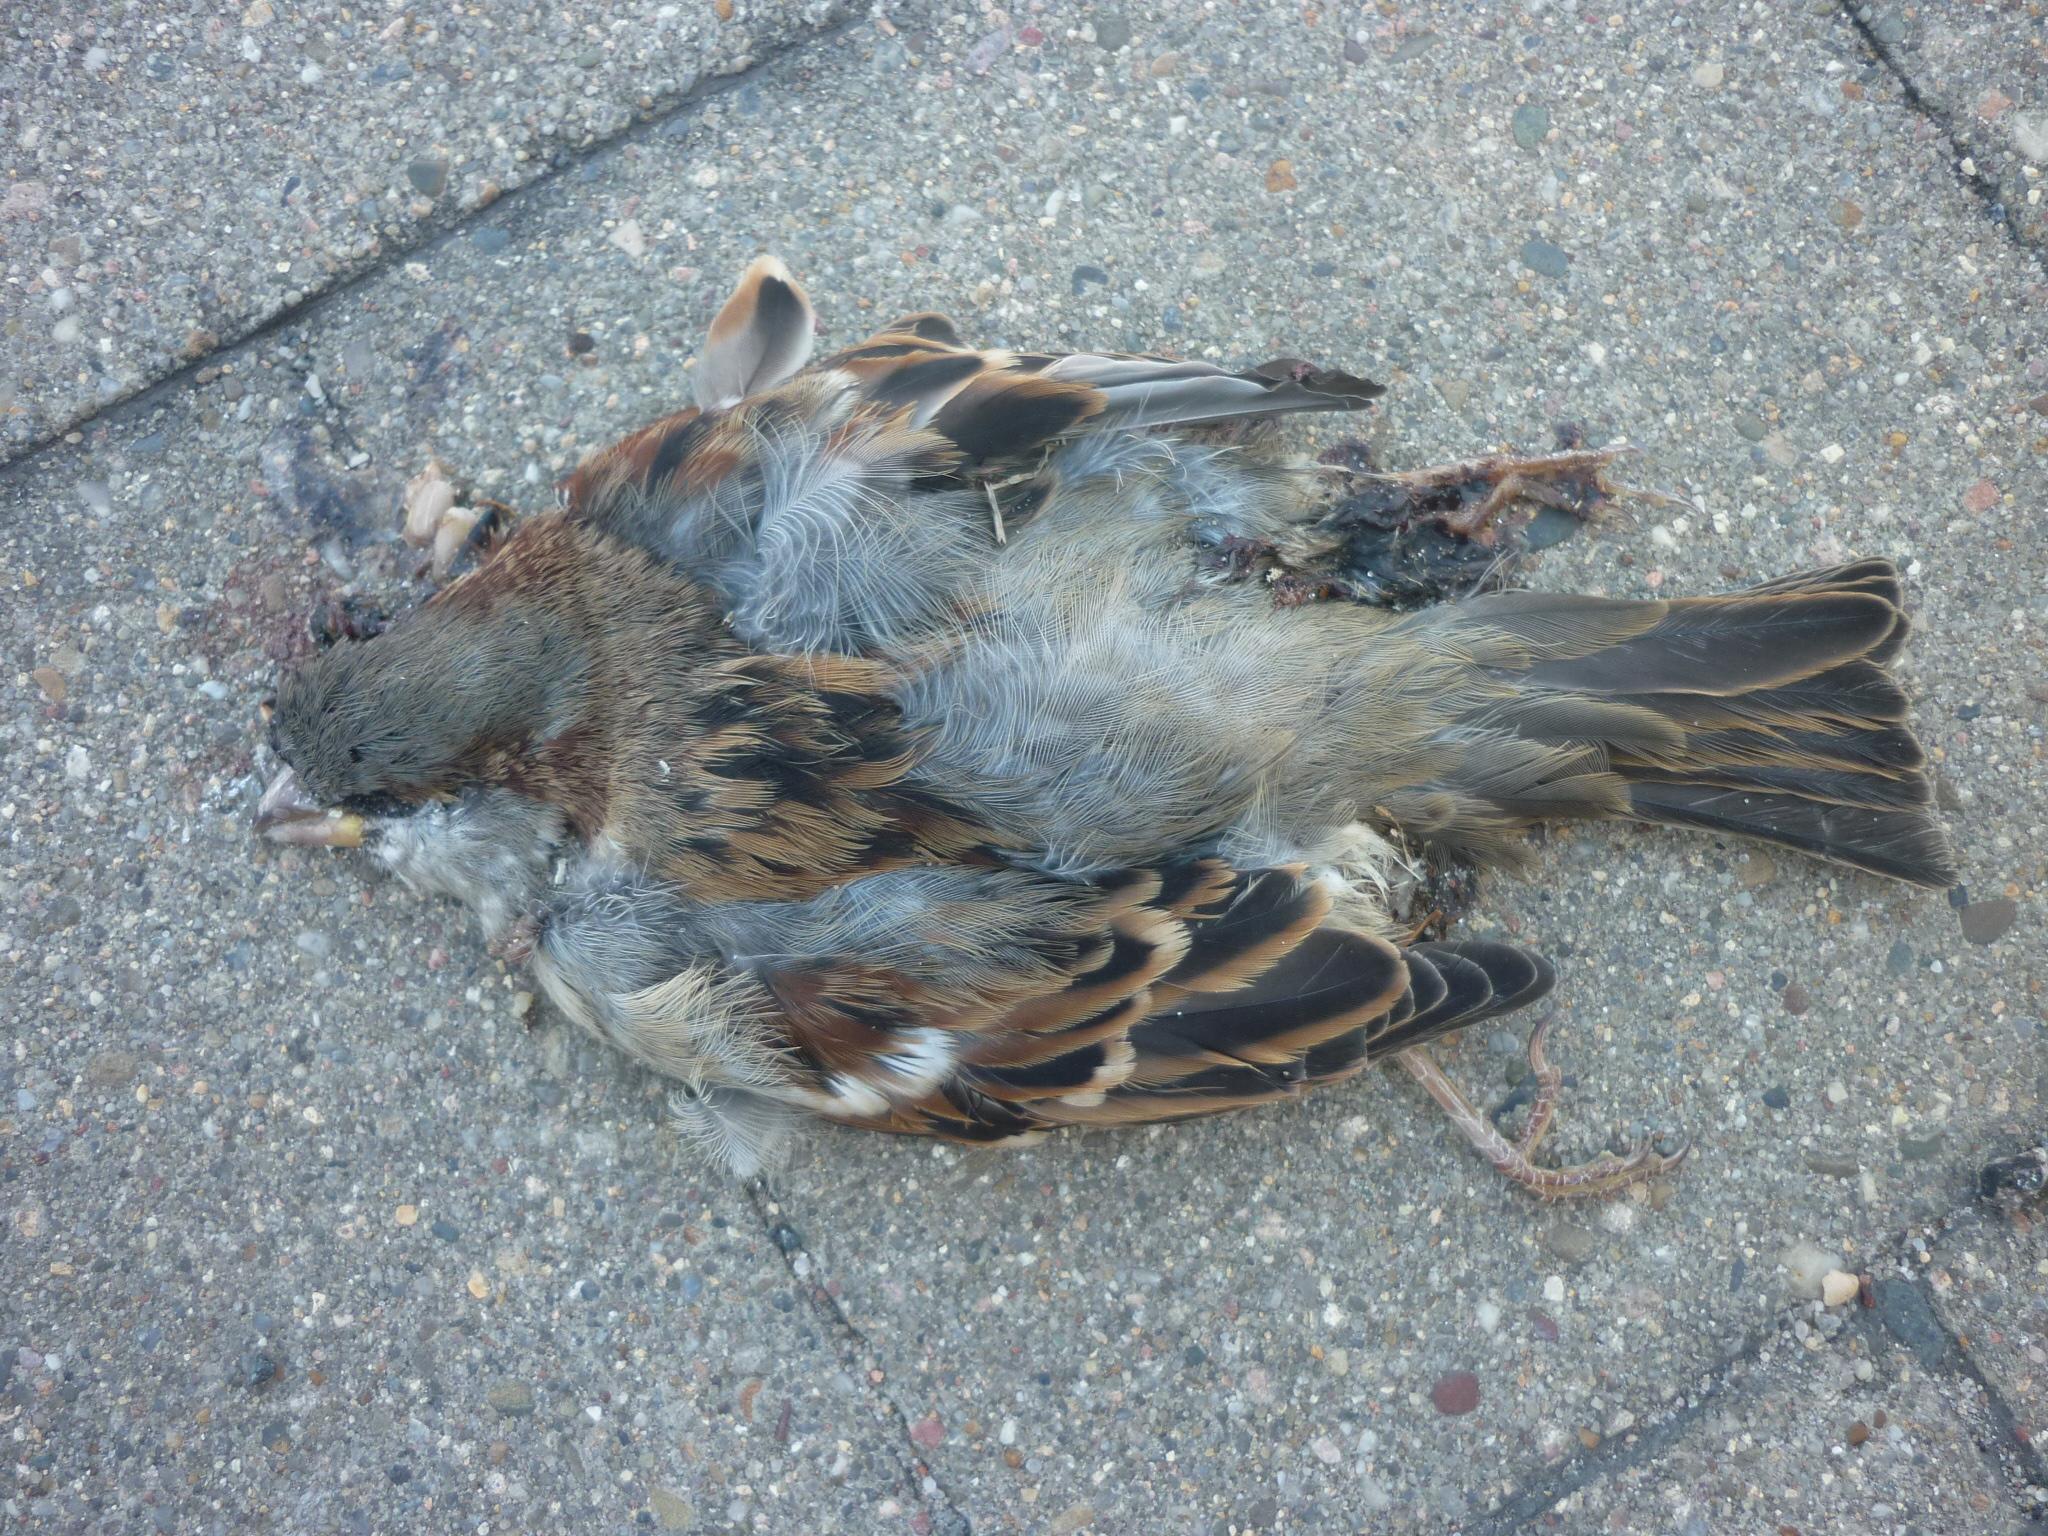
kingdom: Animalia
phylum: Chordata
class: Aves
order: Passeriformes
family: Passeridae
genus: Passer
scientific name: Passer domesticus
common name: House sparrow
